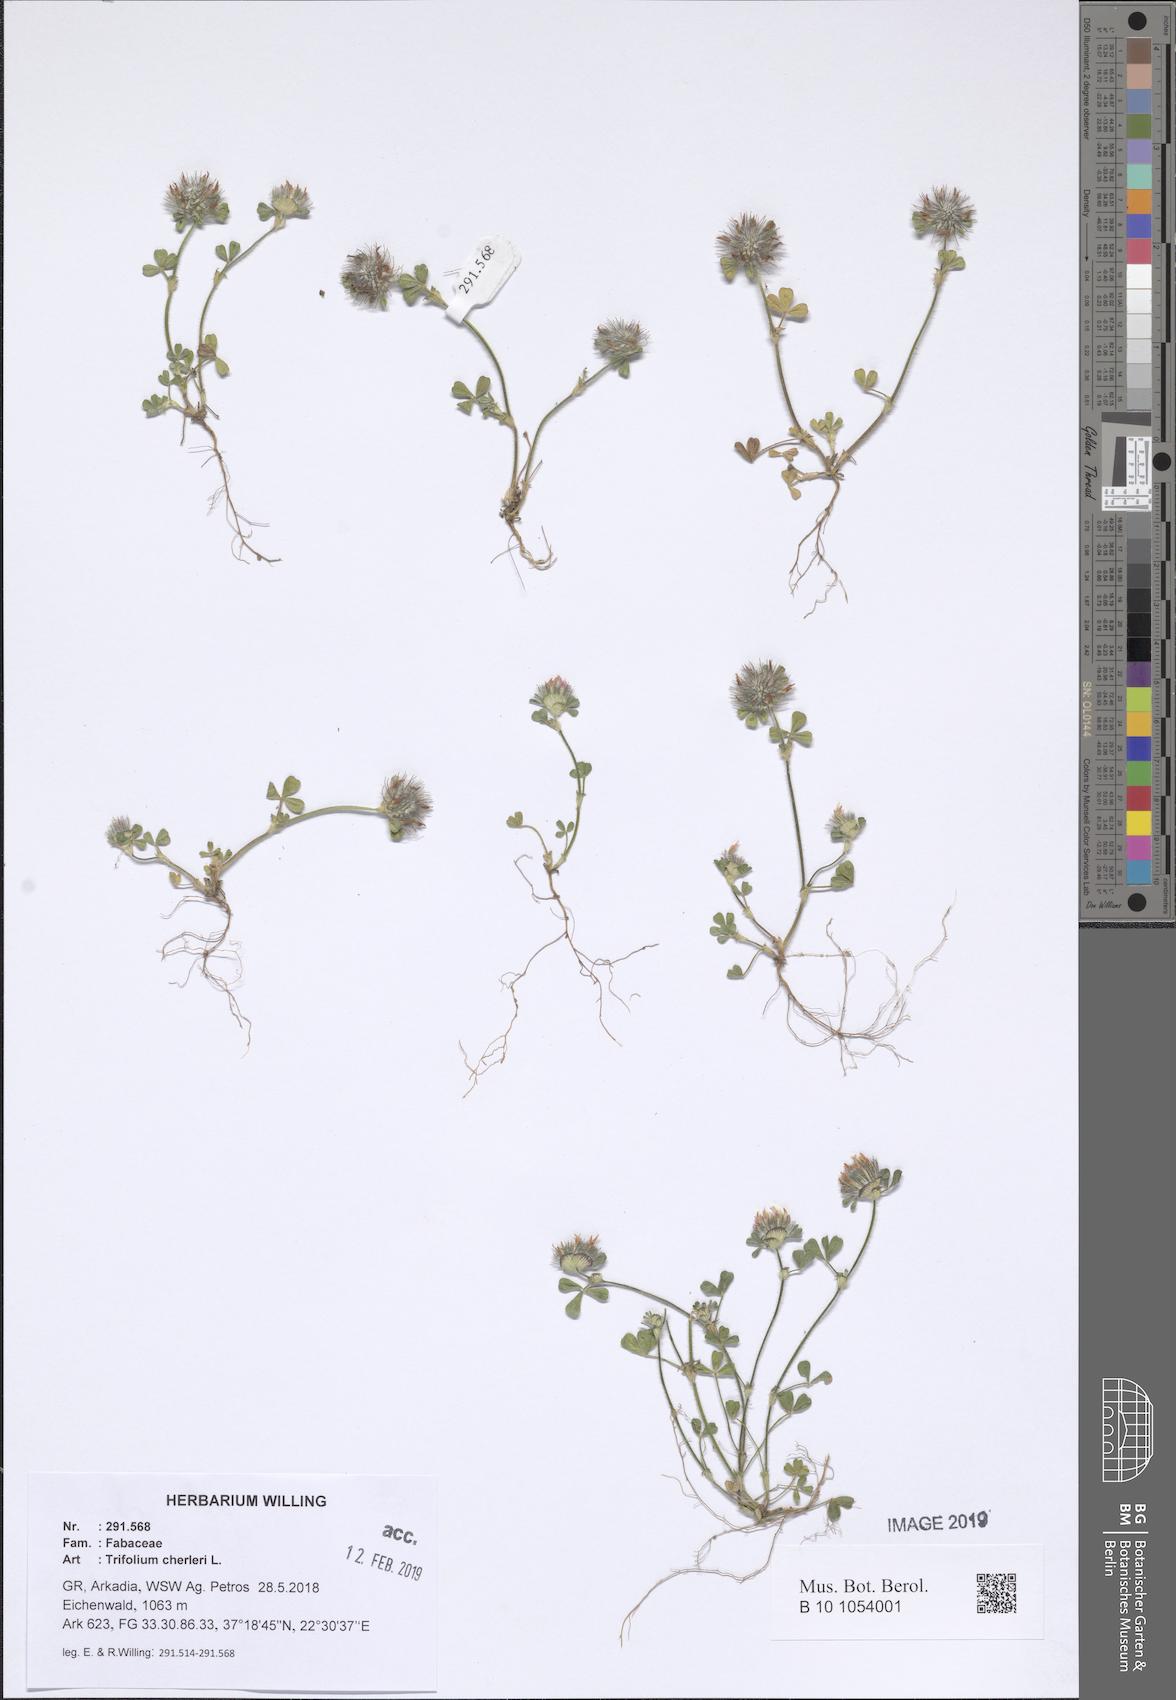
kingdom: Plantae
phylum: Tracheophyta
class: Magnoliopsida
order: Fabales
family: Fabaceae
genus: Trifolium
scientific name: Trifolium cherleri
